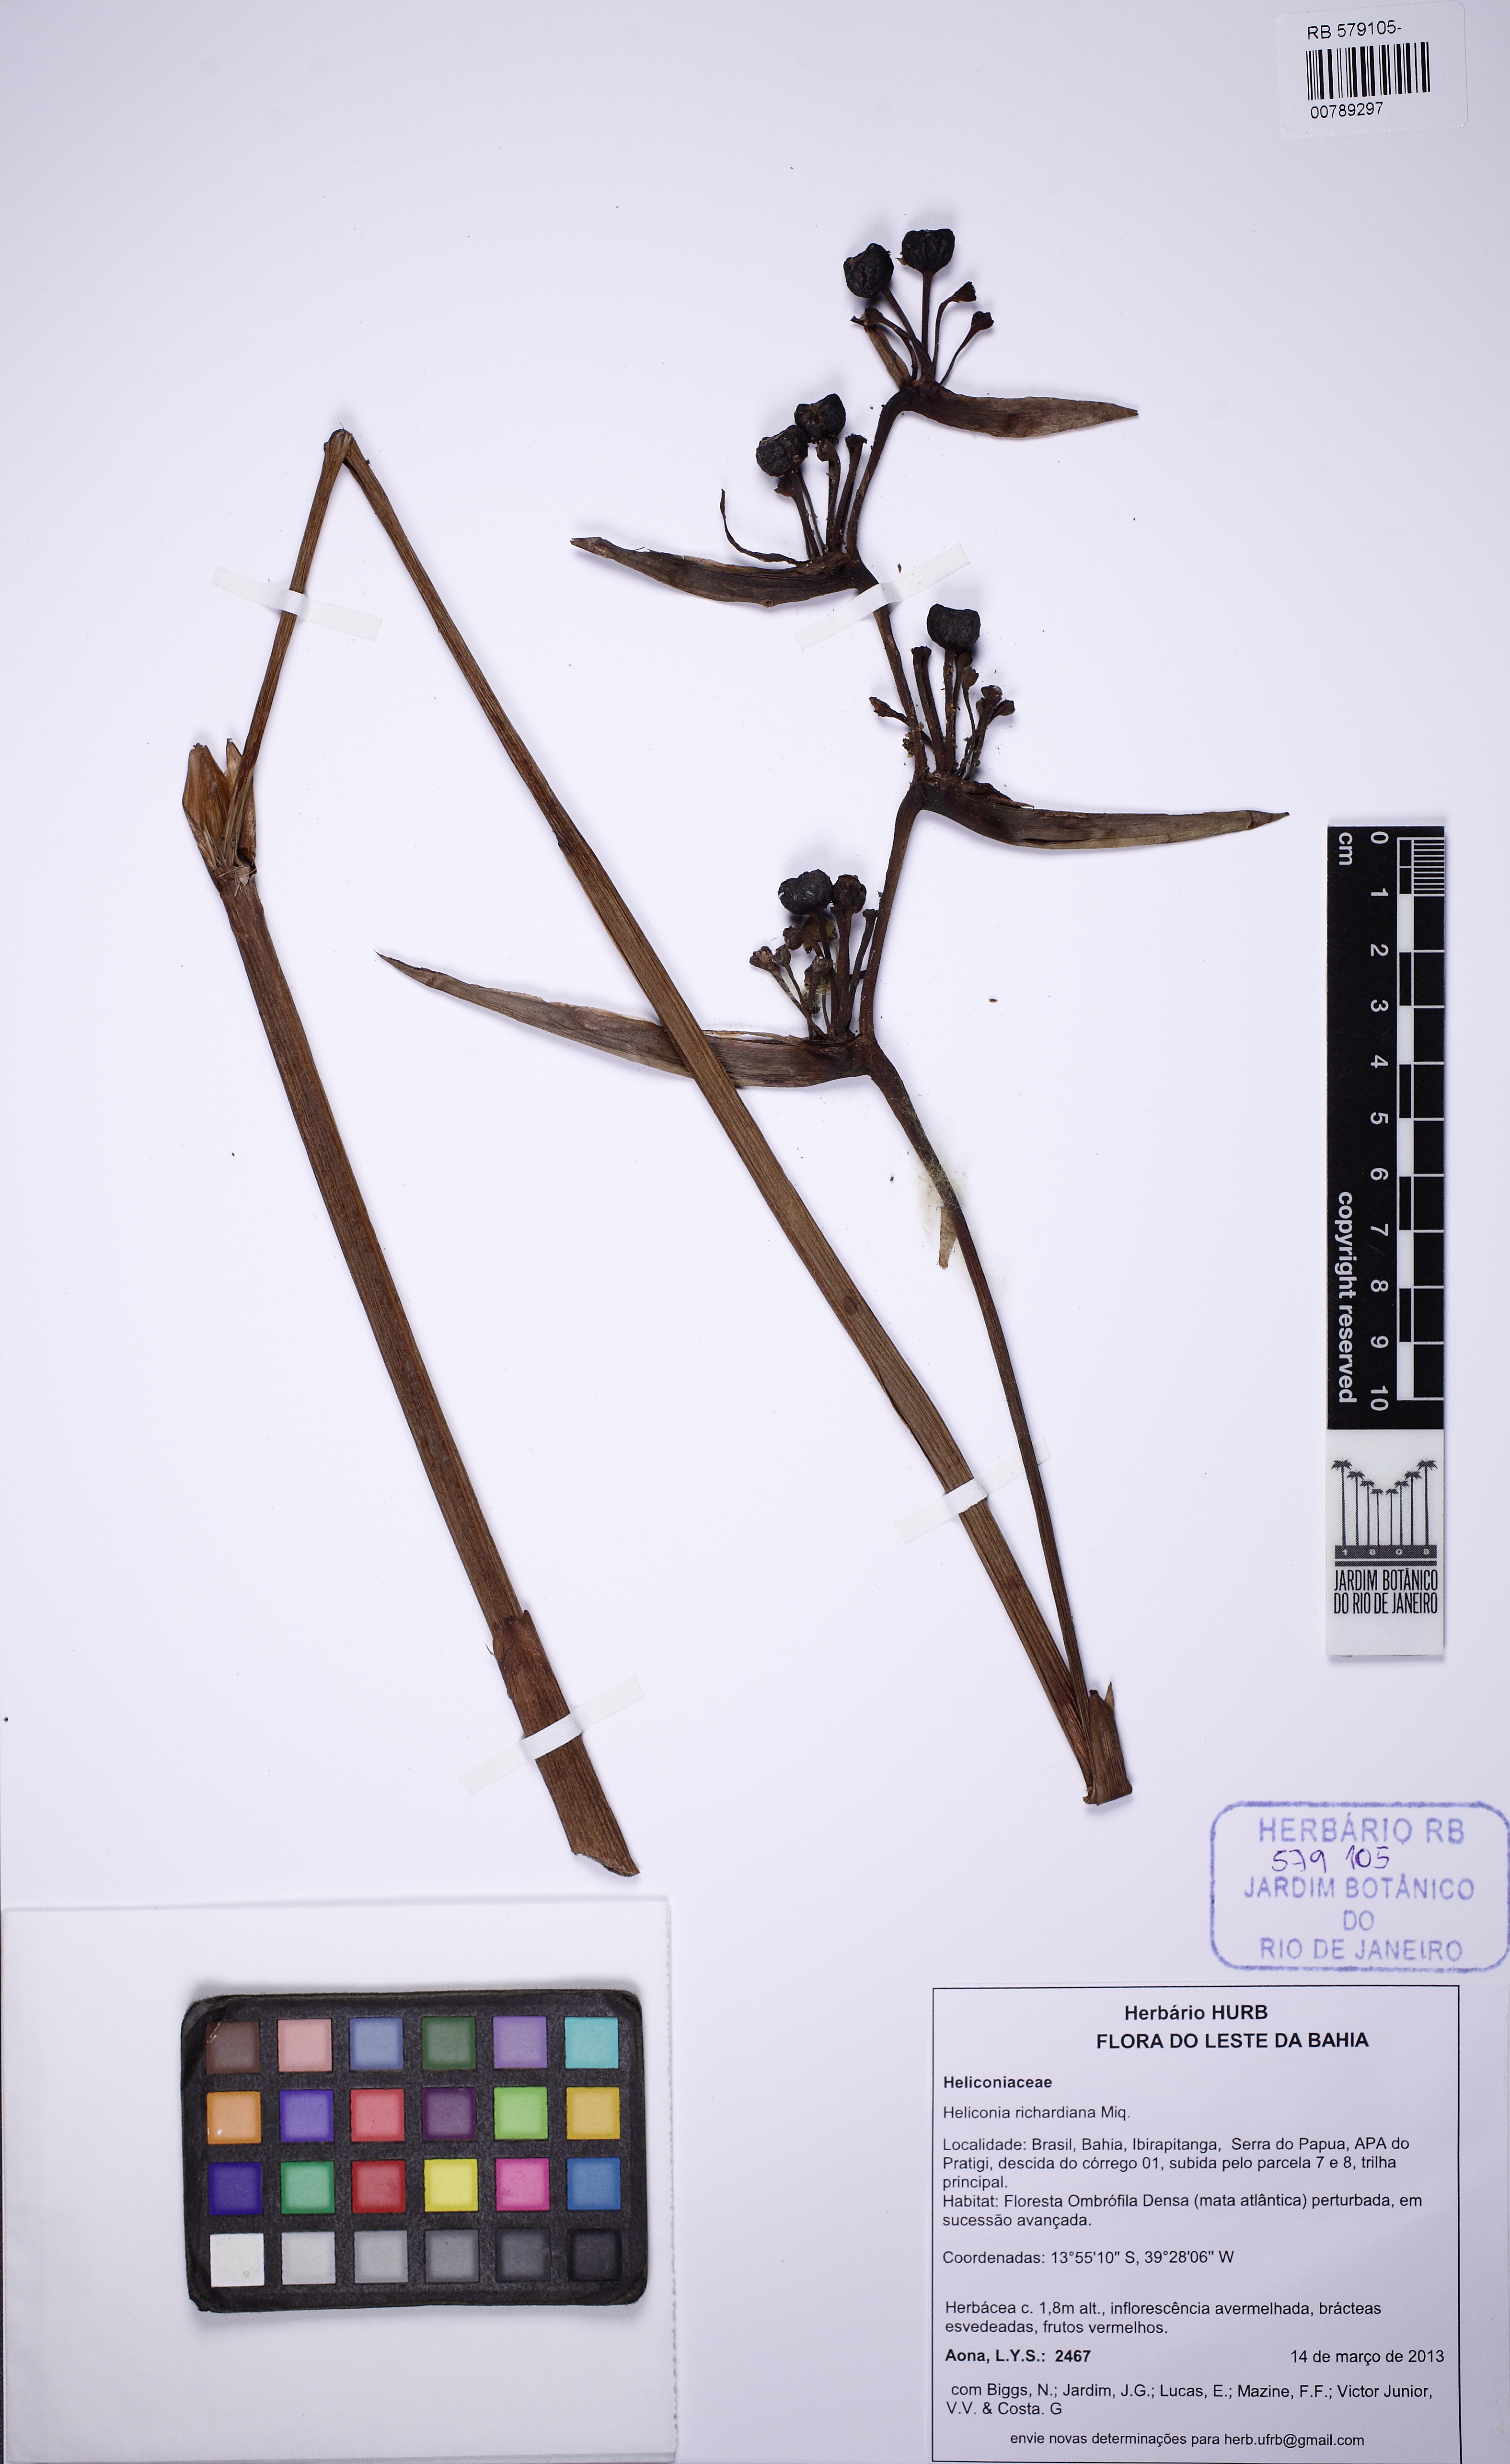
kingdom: Plantae
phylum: Tracheophyta
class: Liliopsida
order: Zingiberales
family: Heliconiaceae
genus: Heliconia
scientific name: Heliconia richardiana
